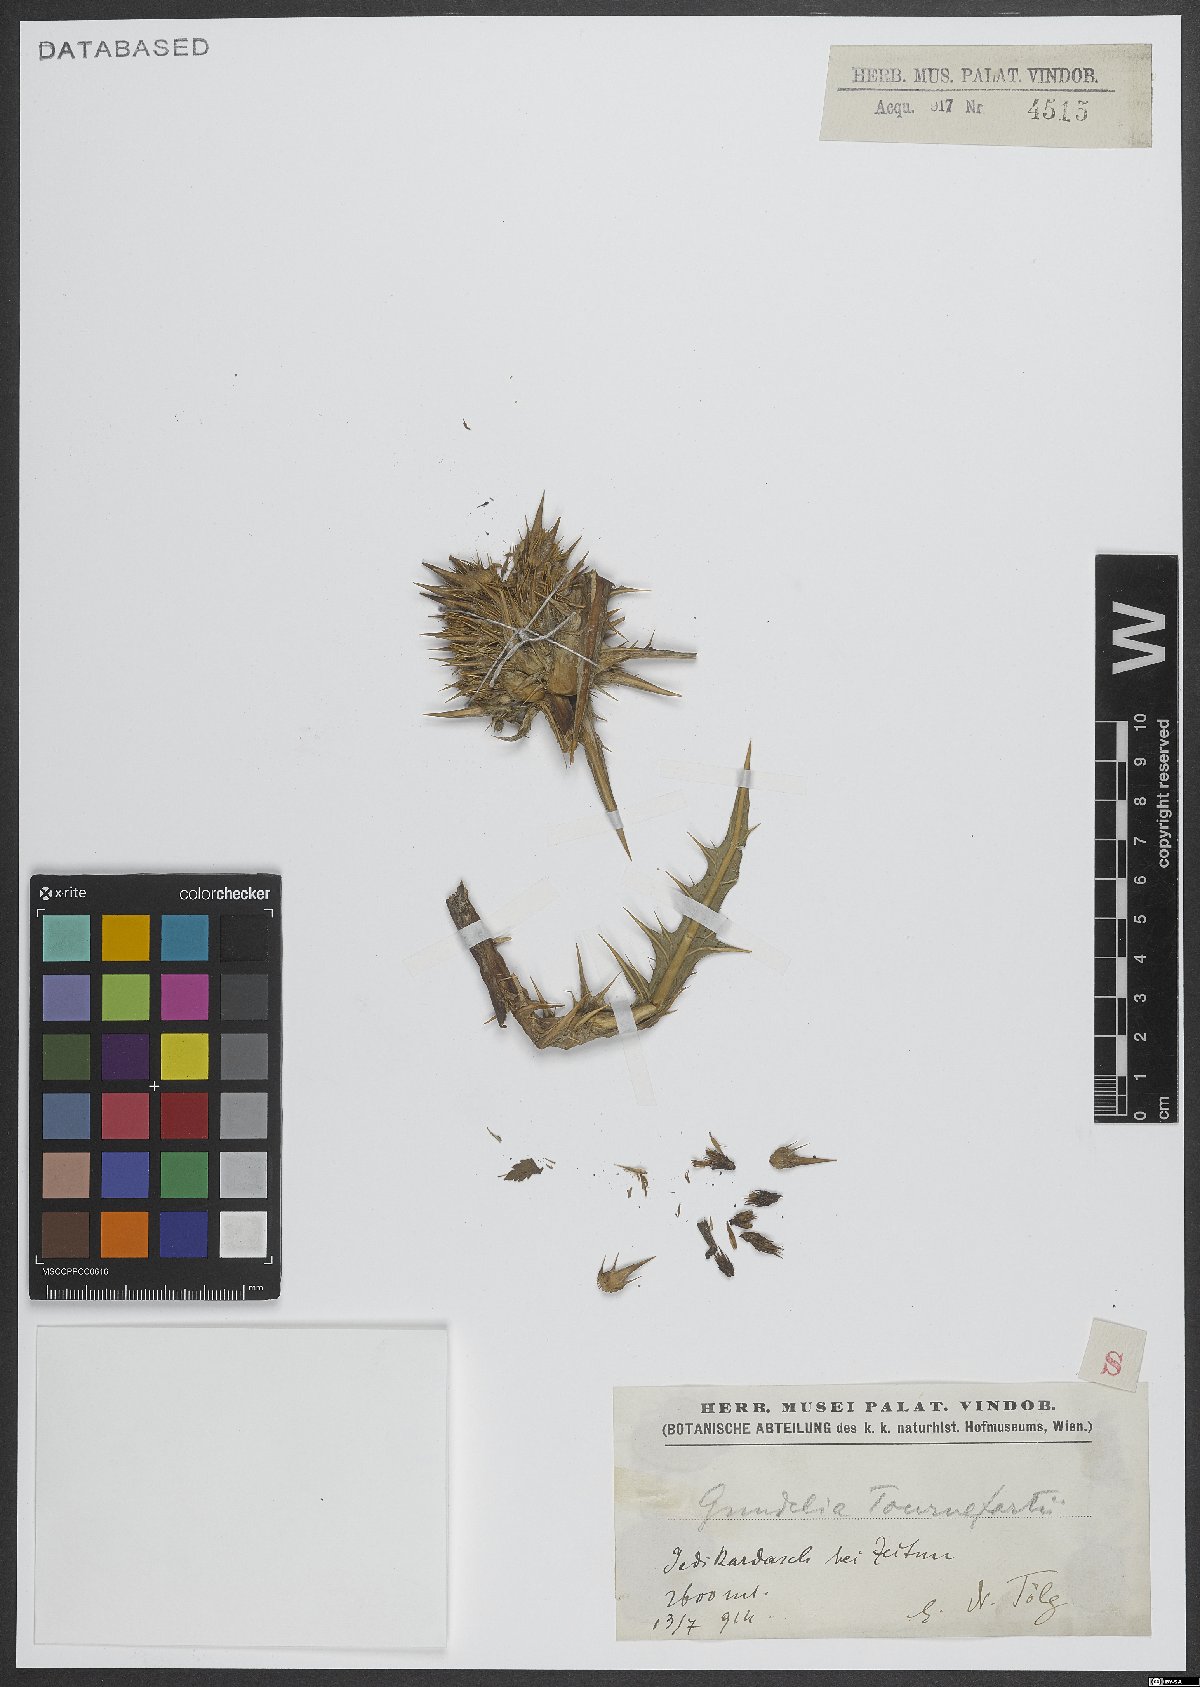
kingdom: Plantae
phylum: Tracheophyta
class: Magnoliopsida
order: Asterales
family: Asteraceae
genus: Gundelia
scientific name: Gundelia tournefortii
